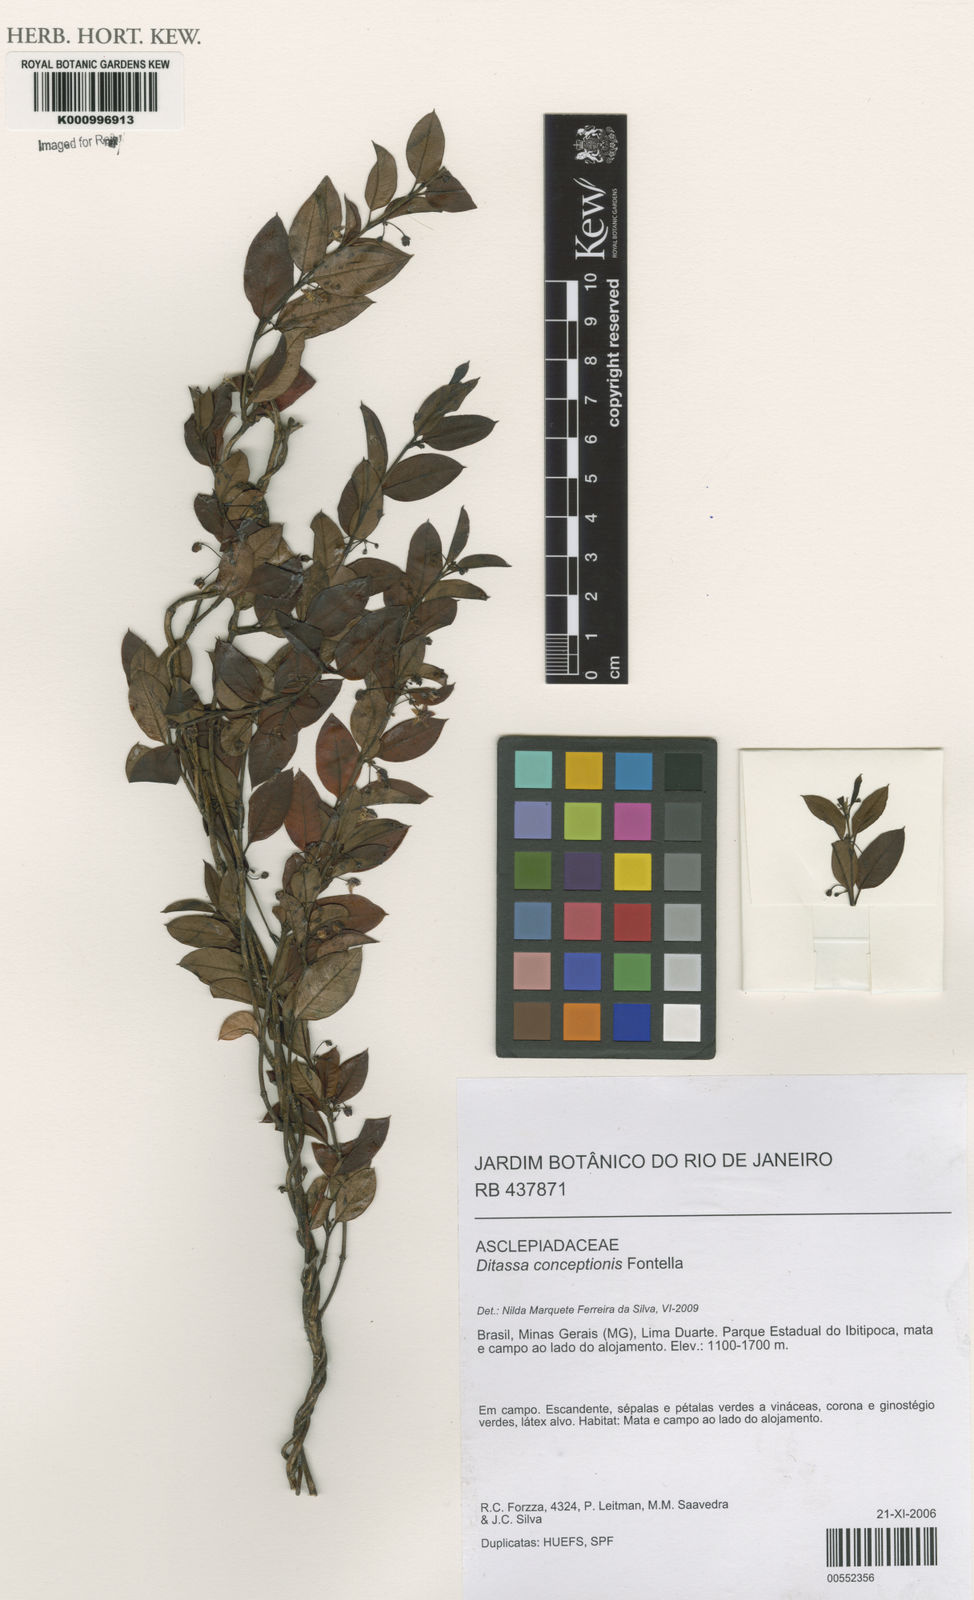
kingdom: Plantae
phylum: Tracheophyta
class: Magnoliopsida
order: Gentianales
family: Apocynaceae
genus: Ditassa
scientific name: Ditassa conceptionis
